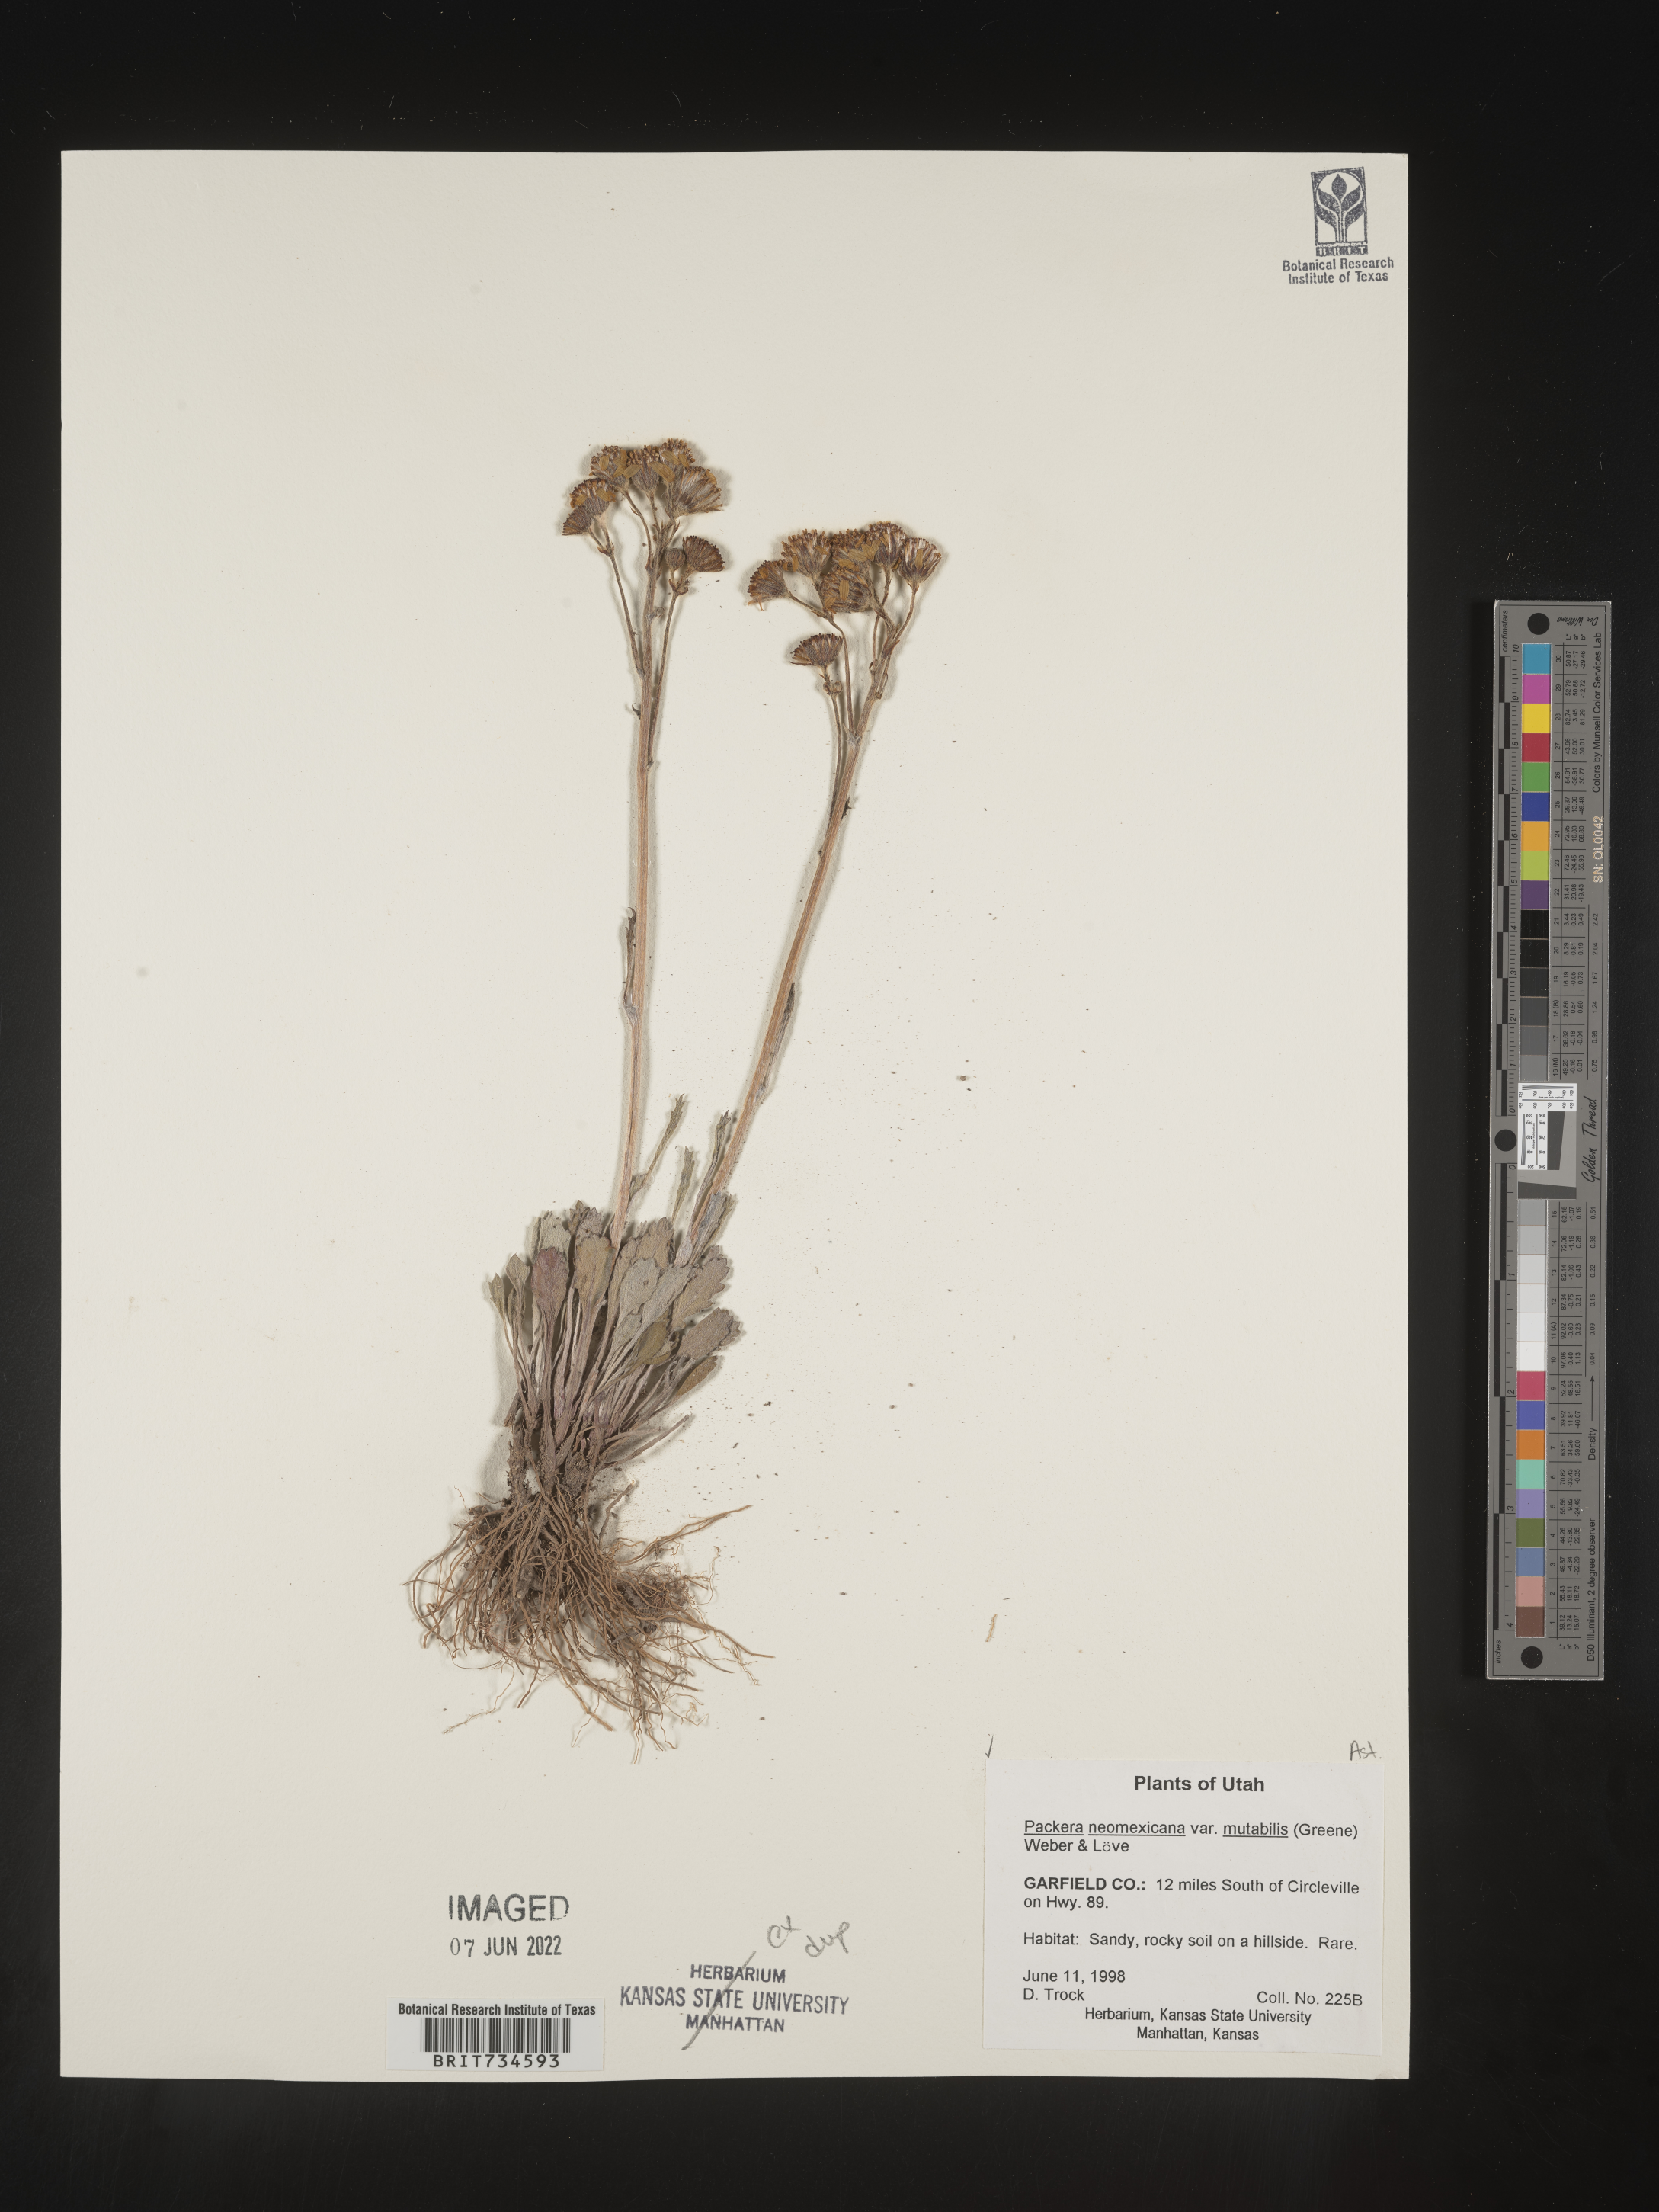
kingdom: Plantae
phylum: Tracheophyta
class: Magnoliopsida
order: Asterales
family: Asteraceae
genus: Packera
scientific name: Packera neomexicana
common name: New mexico butterweed
